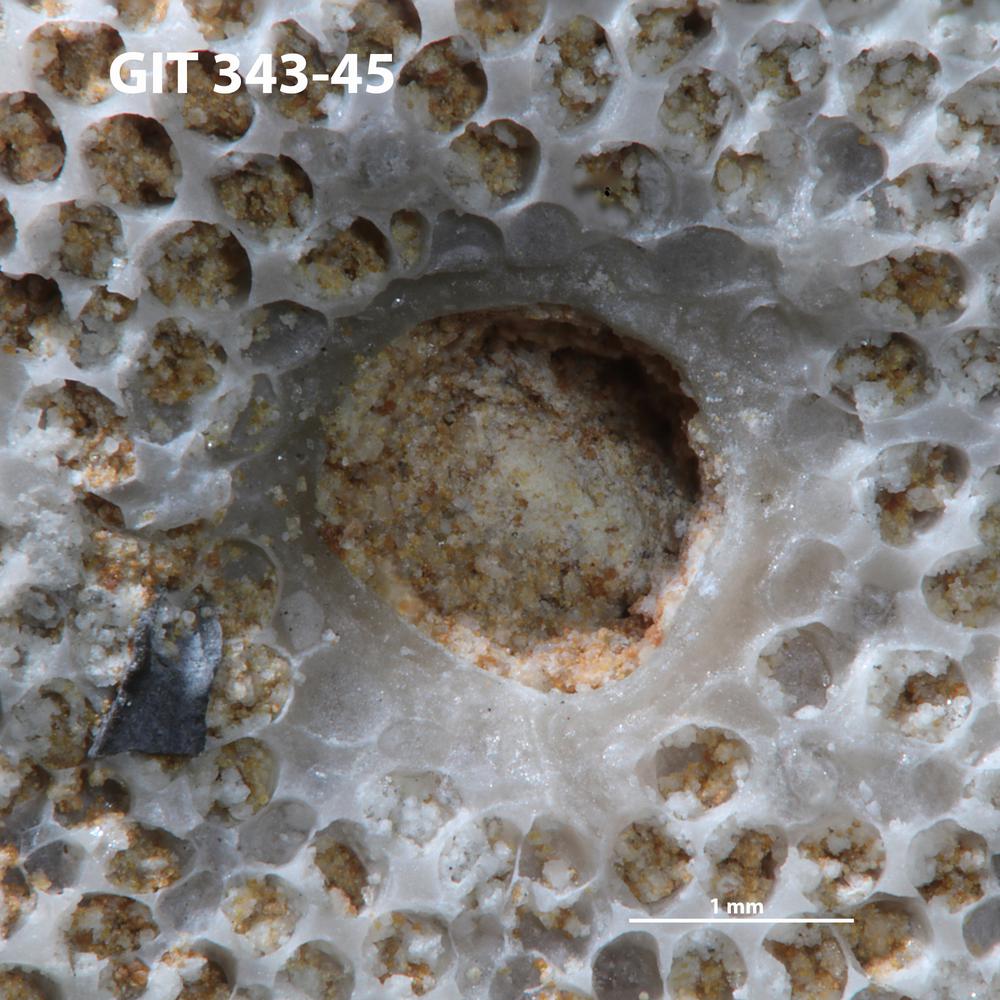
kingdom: Animalia
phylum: Annelida
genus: Anoigmaichnus
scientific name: Anoigmaichnus
